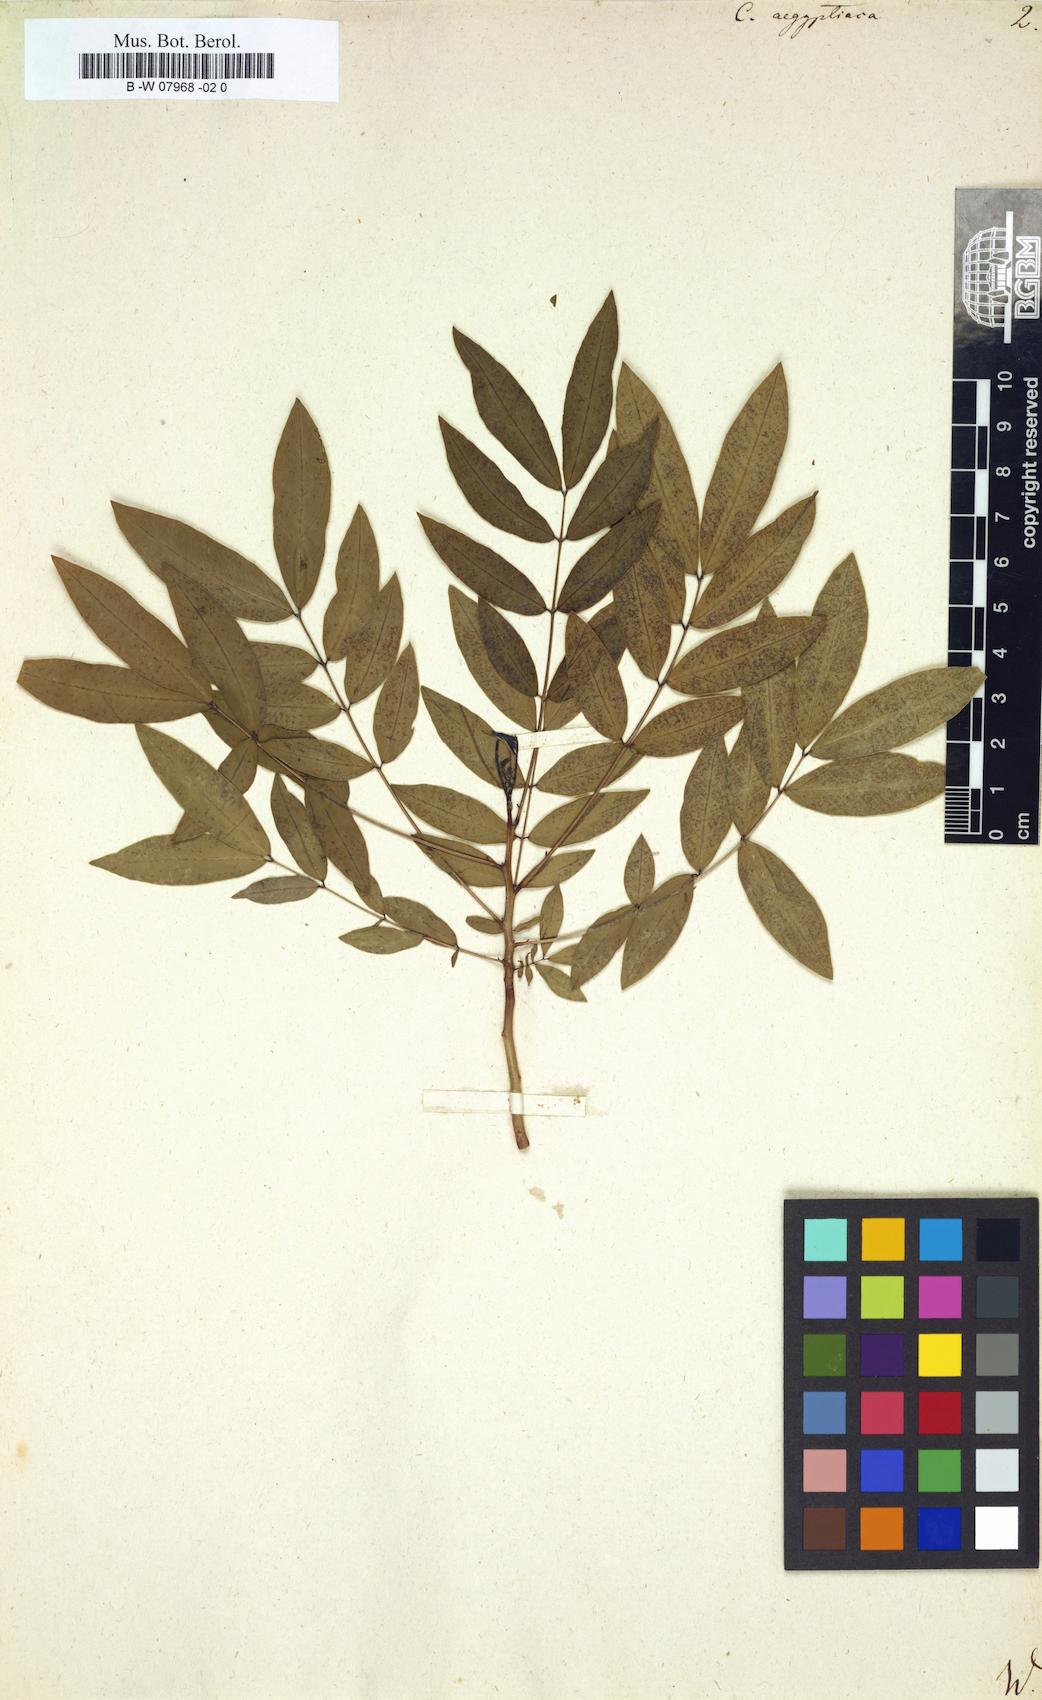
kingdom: Plantae
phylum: Tracheophyta
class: Magnoliopsida
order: Fabales
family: Fabaceae
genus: Senna
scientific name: Senna sophera
